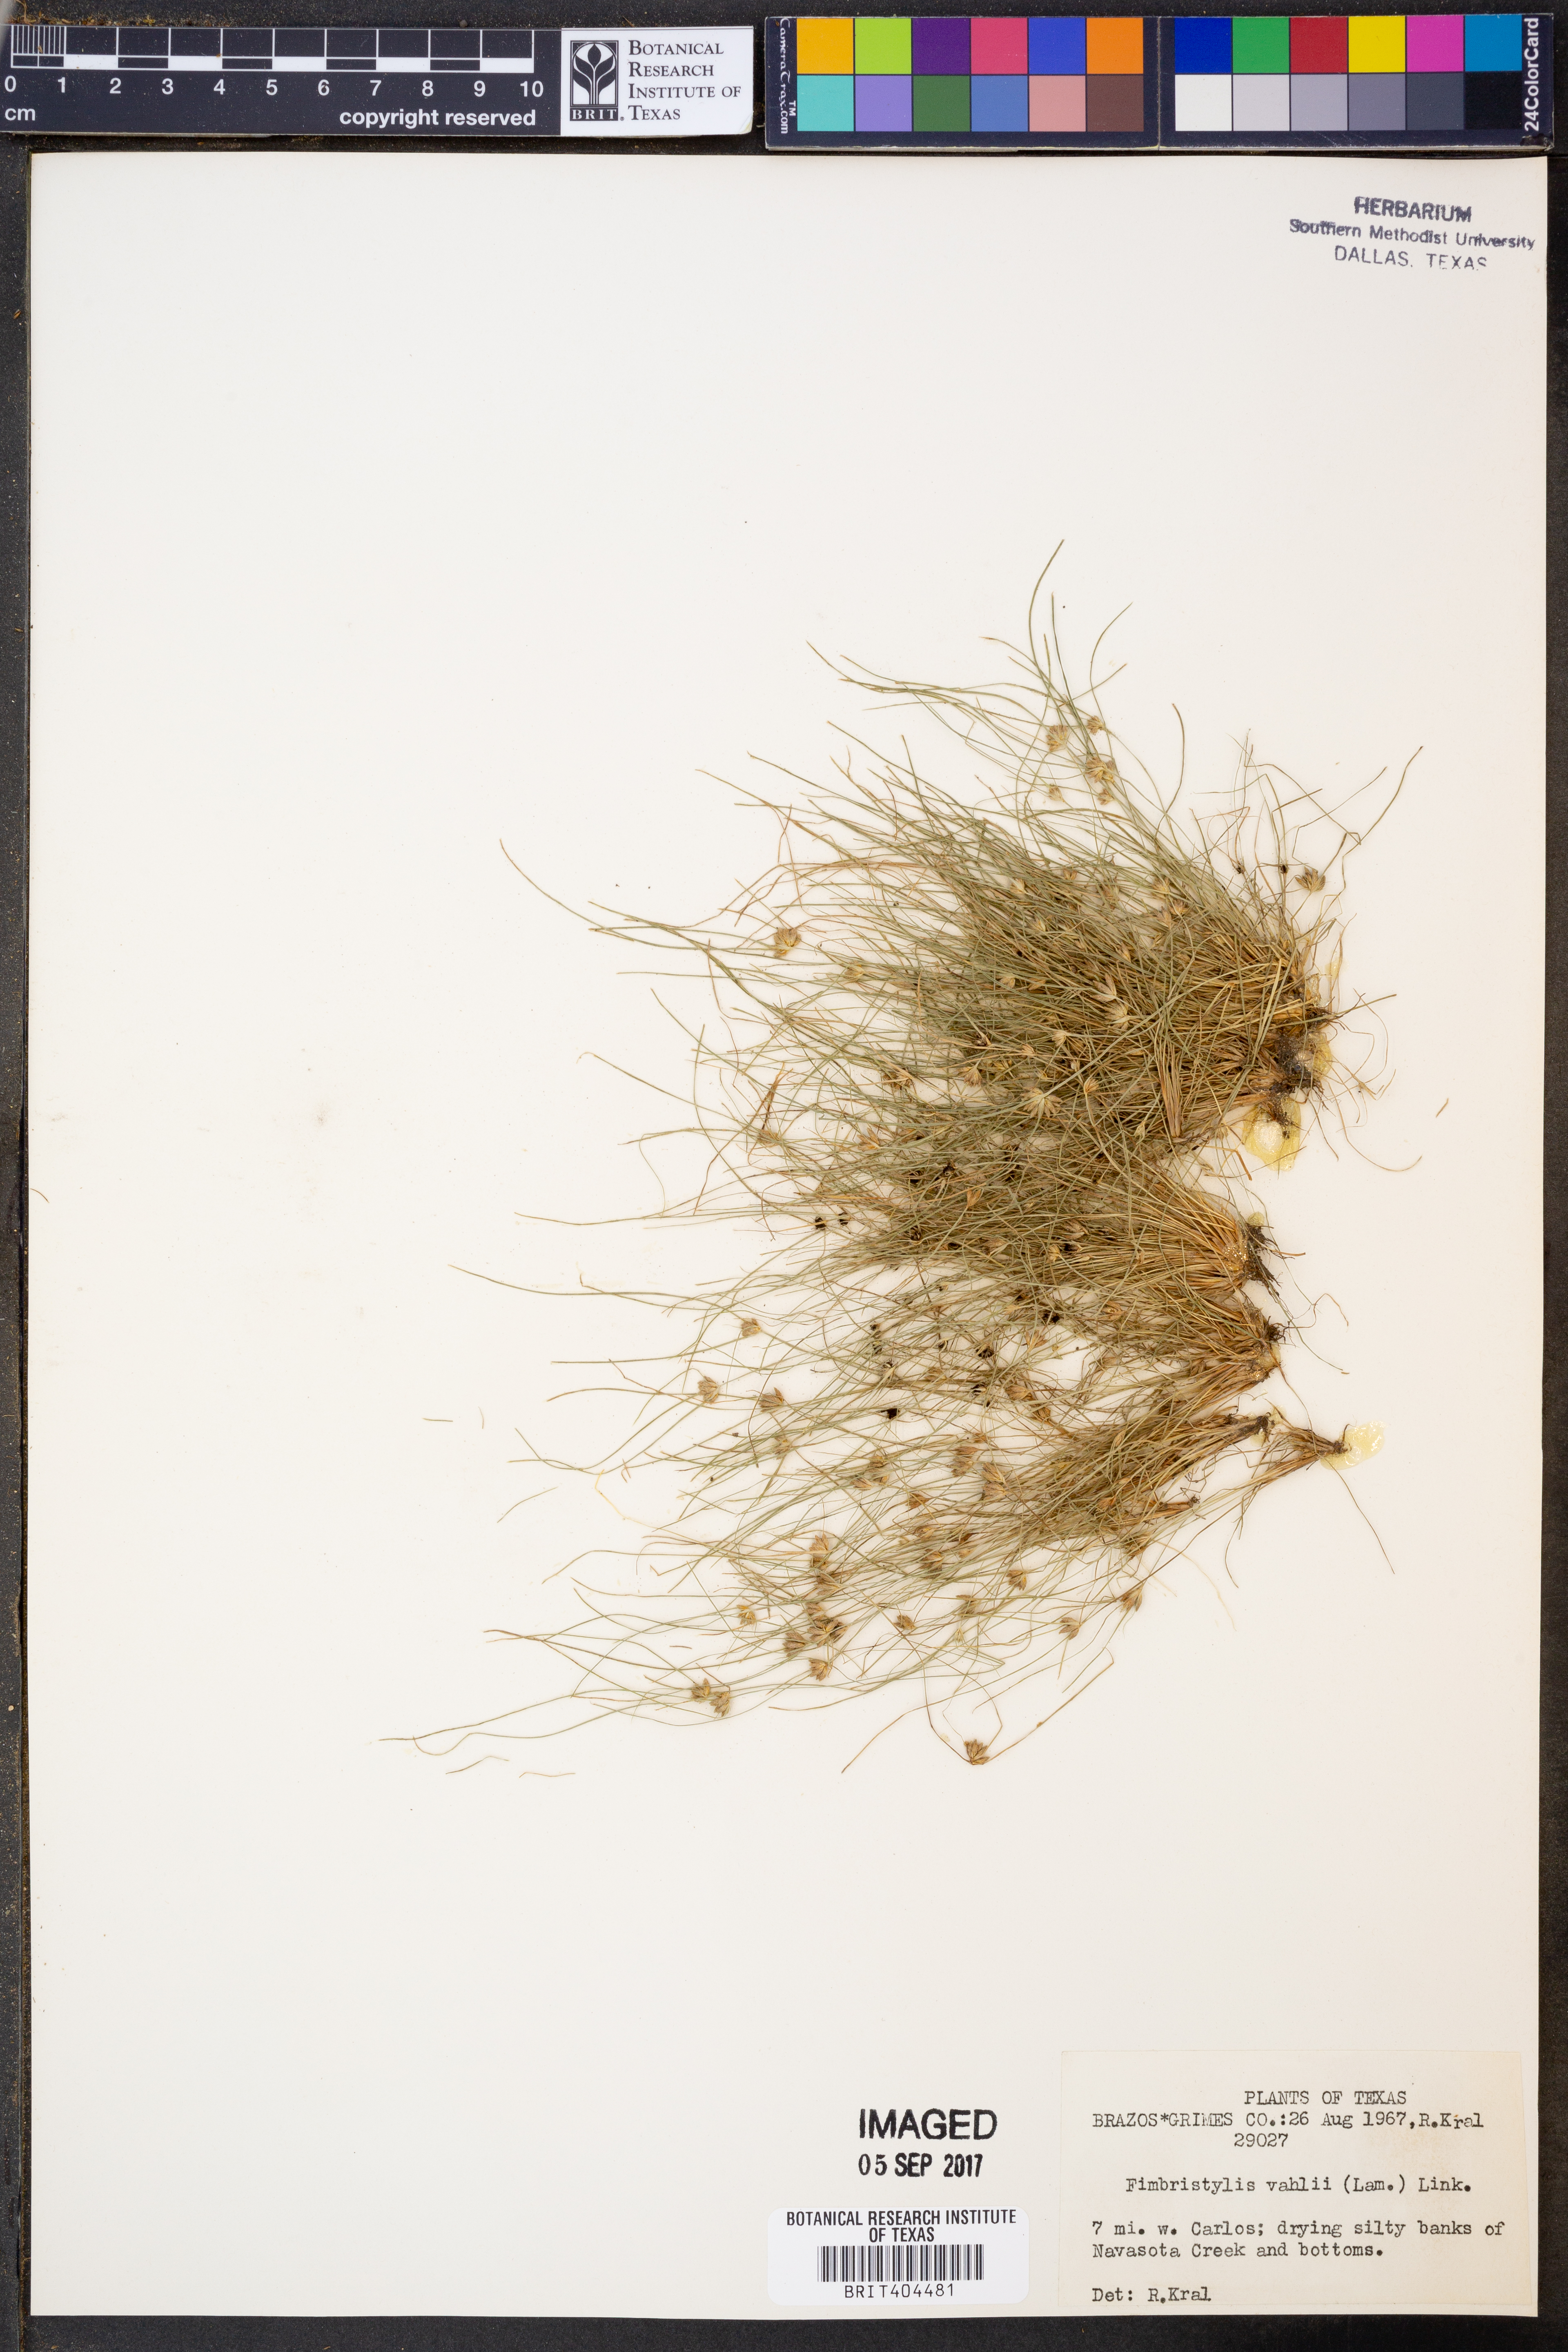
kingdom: Plantae
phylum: Tracheophyta
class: Liliopsida
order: Poales
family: Cyperaceae
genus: Fimbristylis
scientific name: Fimbristylis vahlii
